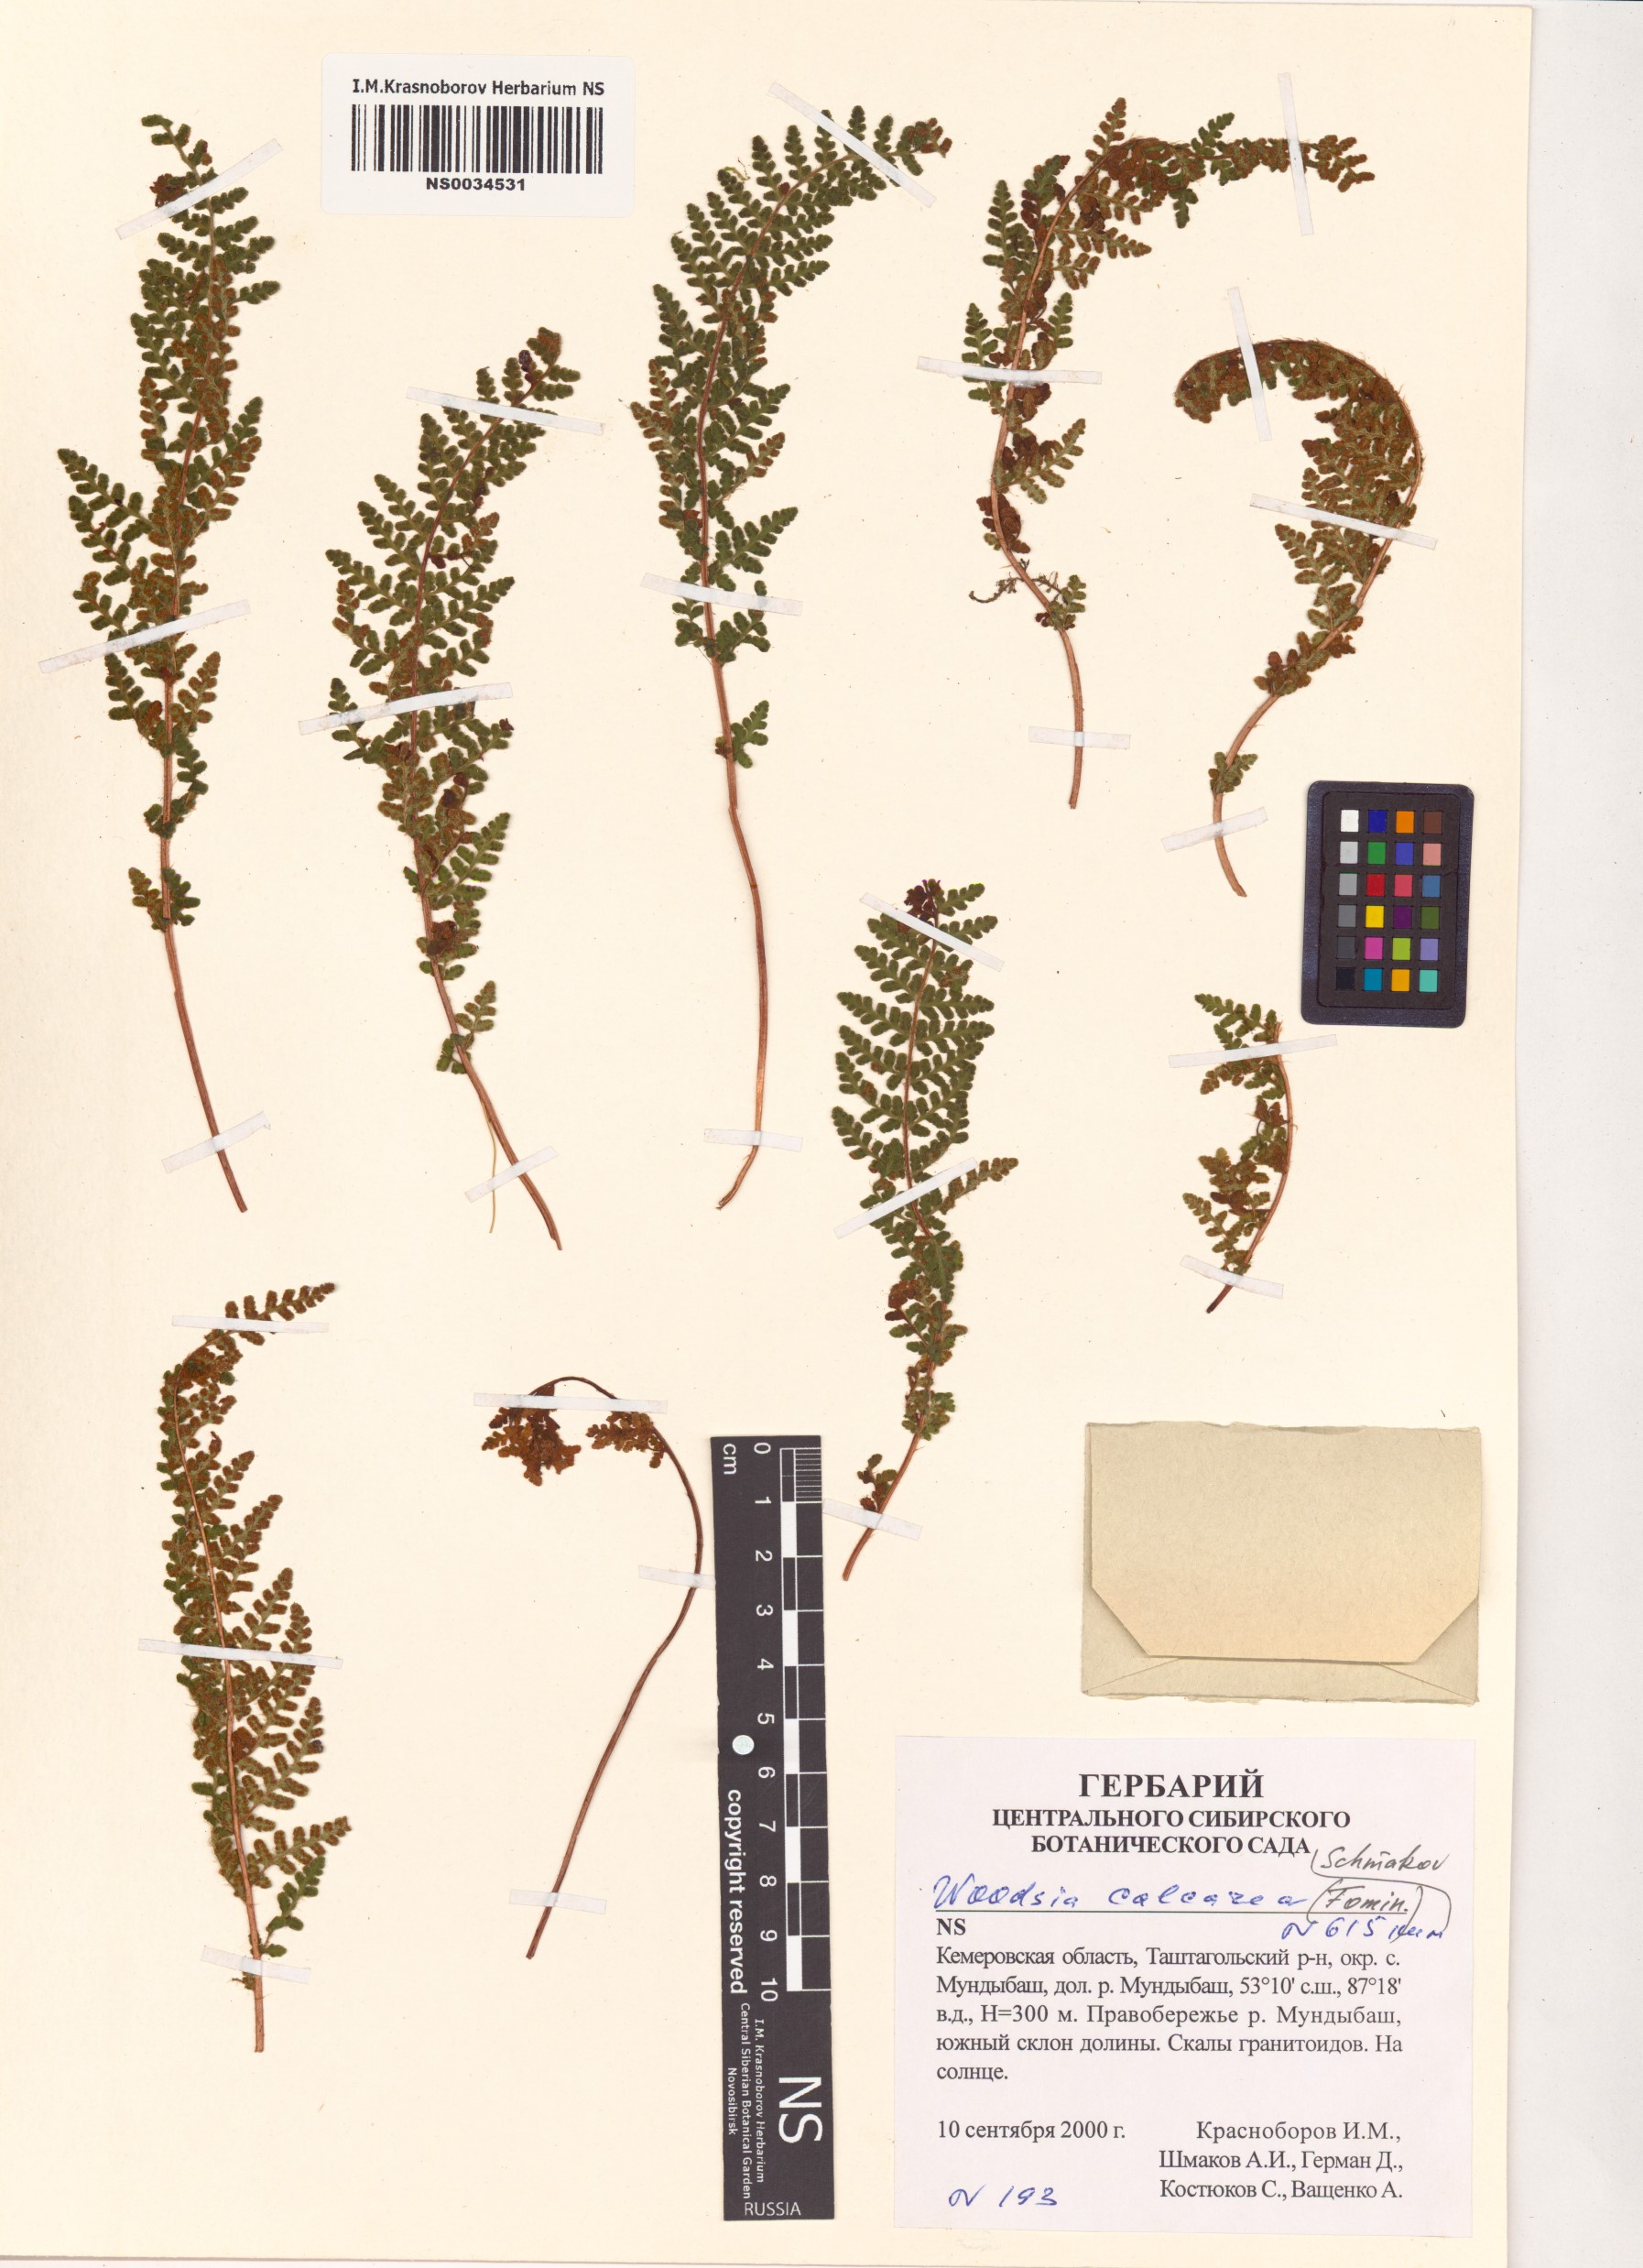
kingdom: Plantae
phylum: Tracheophyta
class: Polypodiopsida
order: Polypodiales
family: Woodsiaceae
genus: Woodsia
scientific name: Woodsia calcarea
